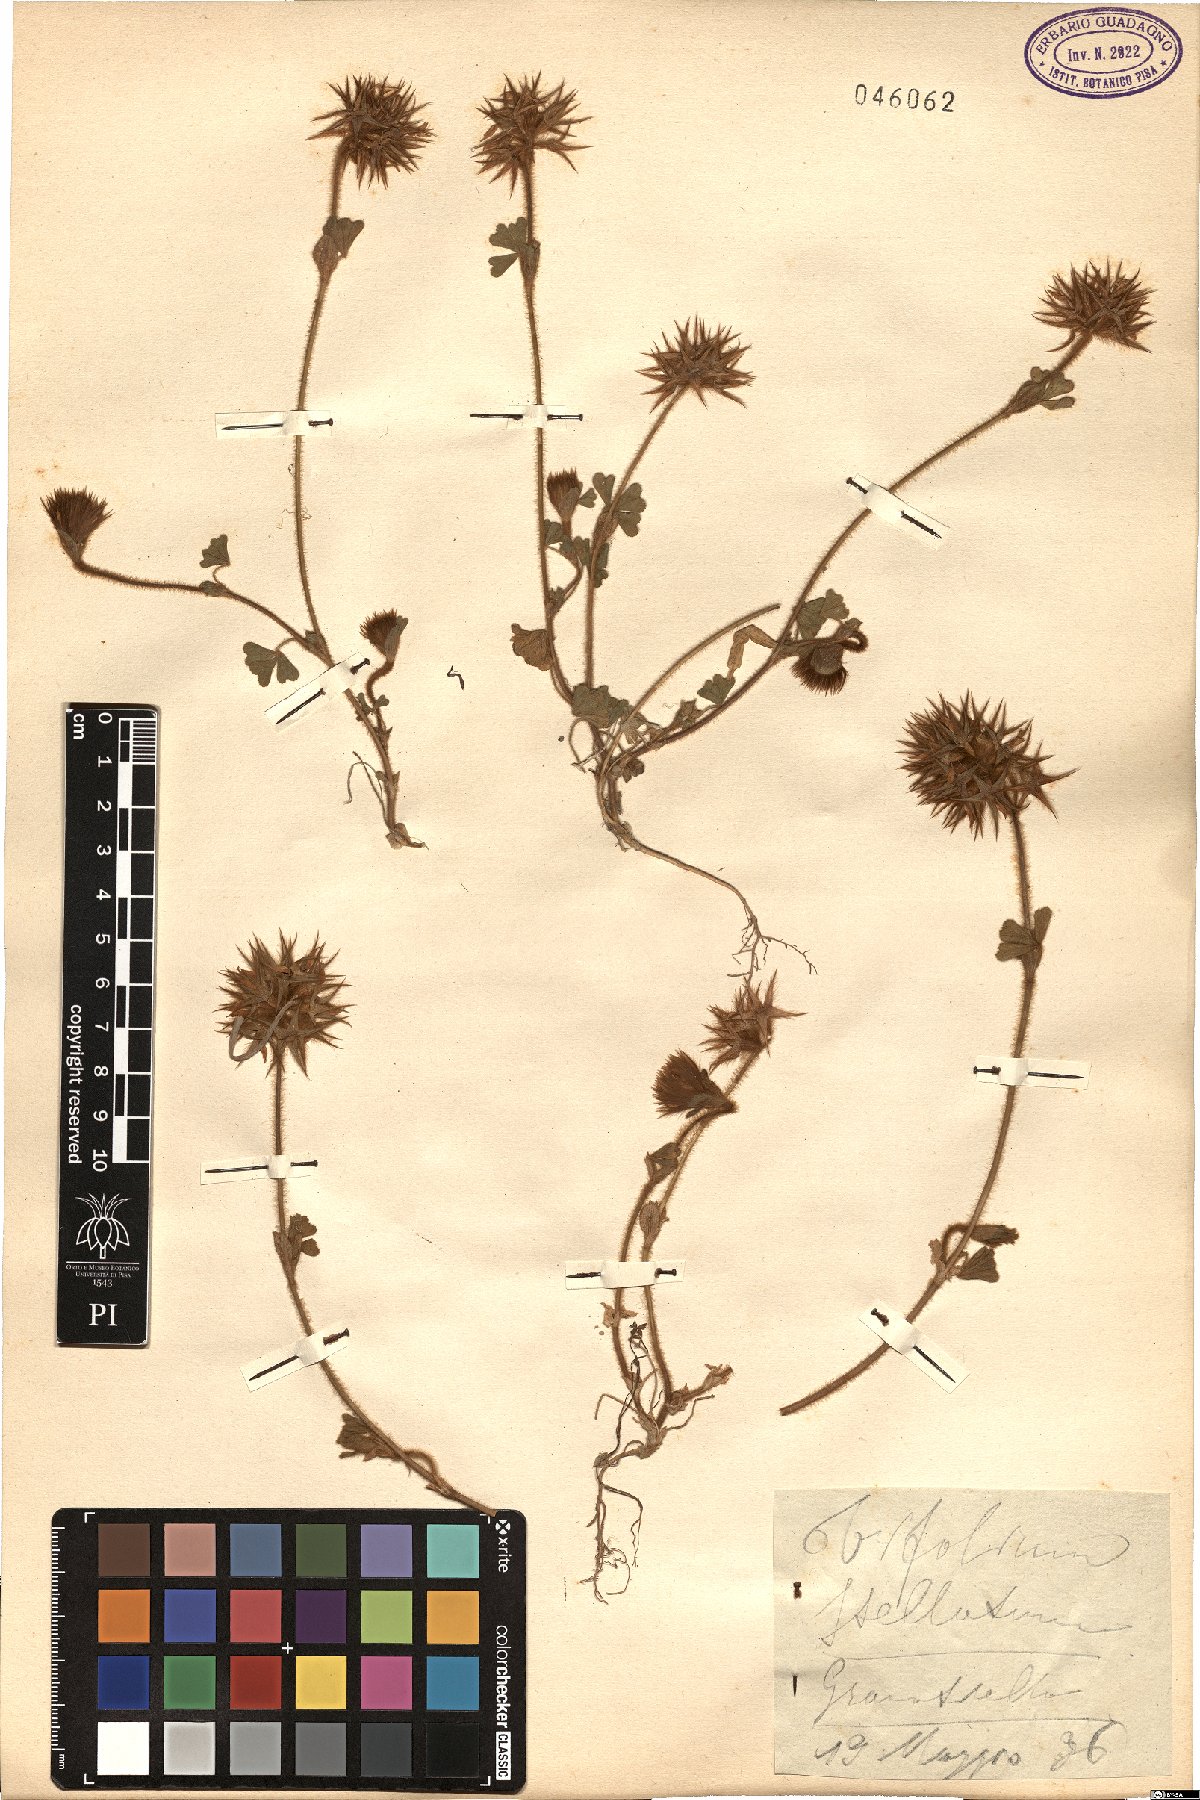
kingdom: Plantae
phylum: Tracheophyta
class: Magnoliopsida
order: Fabales
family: Fabaceae
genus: Trifolium
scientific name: Trifolium stellatum
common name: Starry clover
